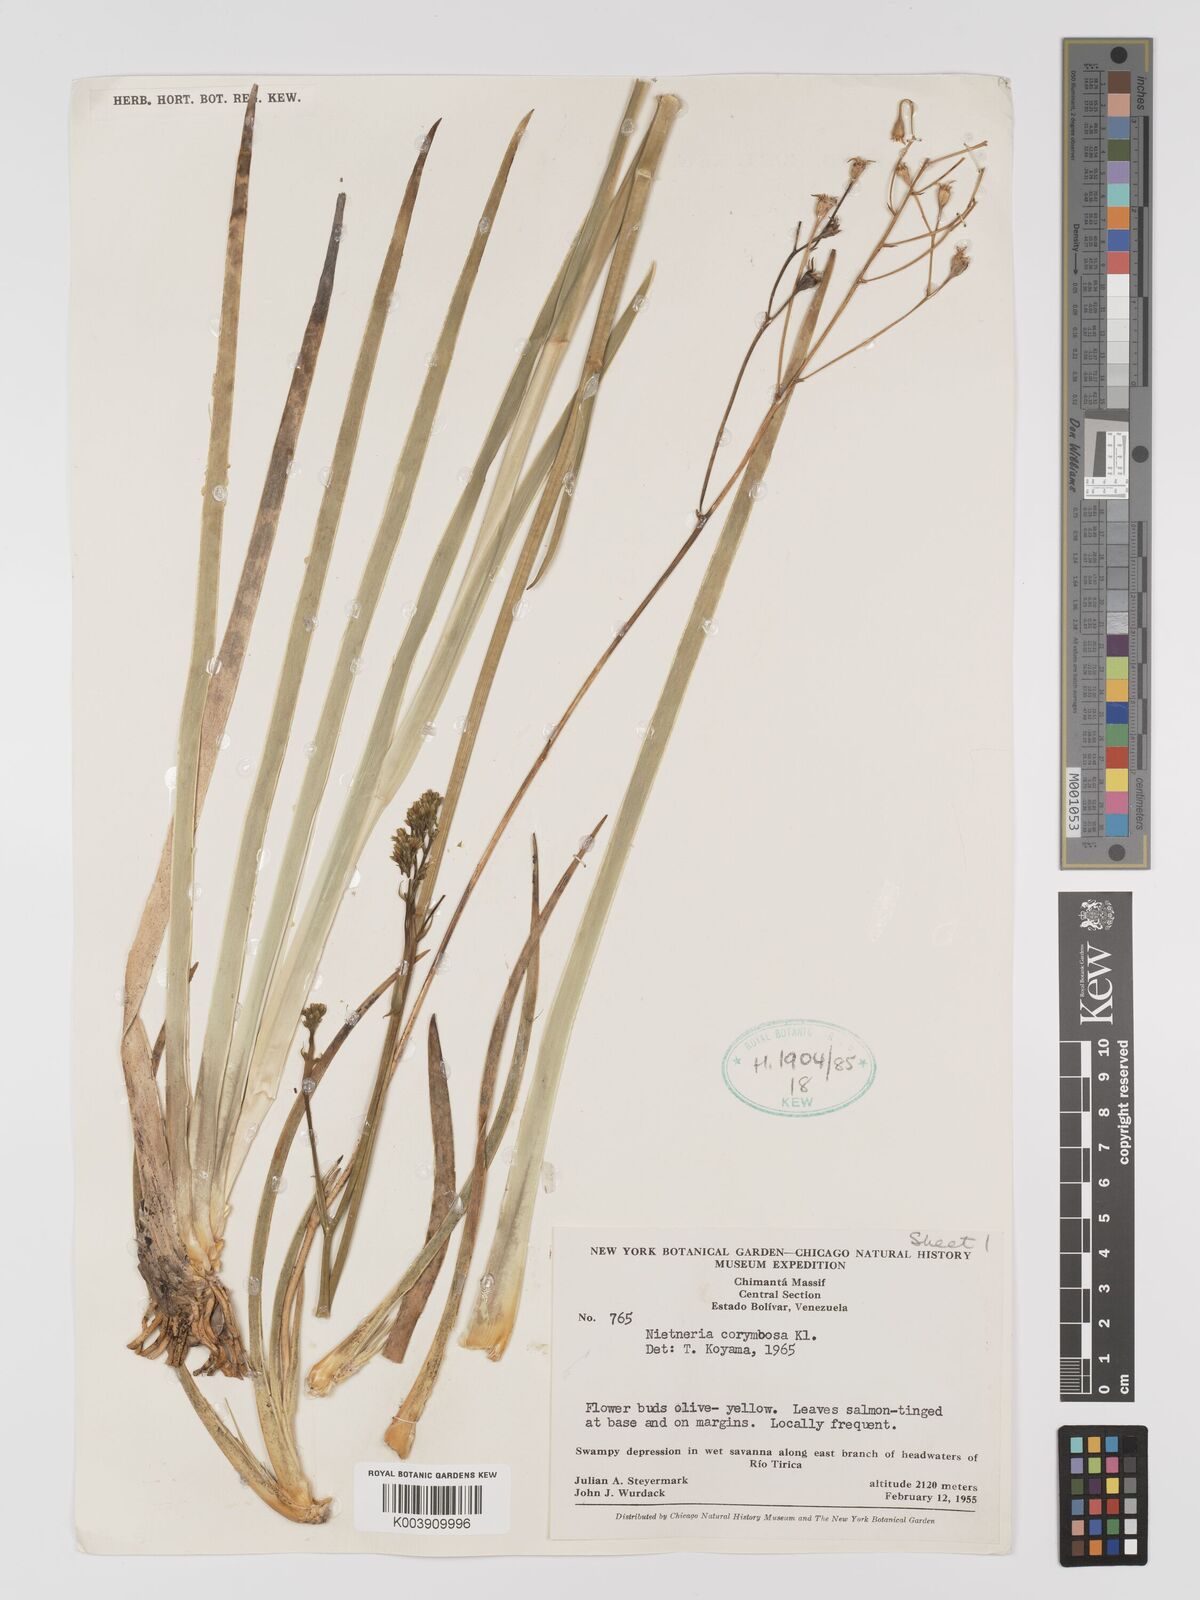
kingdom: Plantae
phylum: Tracheophyta
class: Liliopsida
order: Dioscoreales
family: Nartheciaceae
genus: Nietneria
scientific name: Nietneria corymbosa
